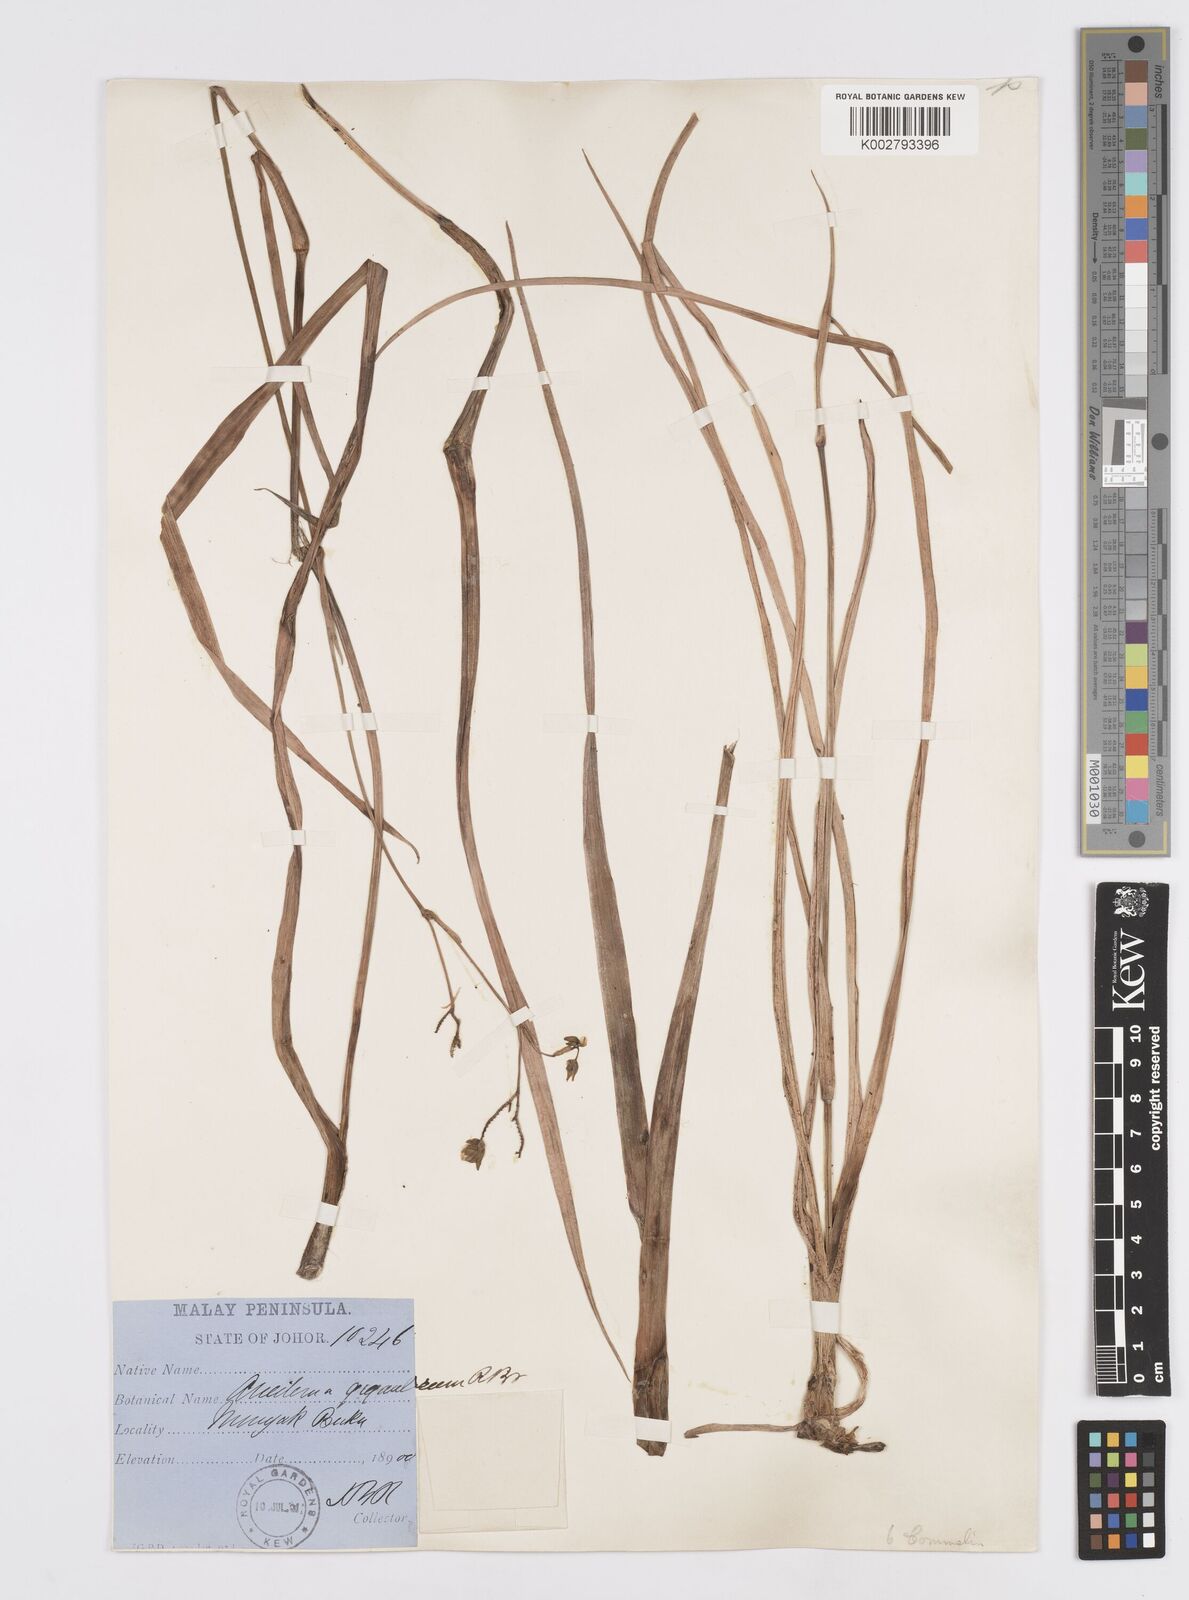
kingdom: Plantae
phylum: Tracheophyta
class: Liliopsida
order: Commelinales
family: Commelinaceae
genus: Murdannia
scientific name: Murdannia gigantea
